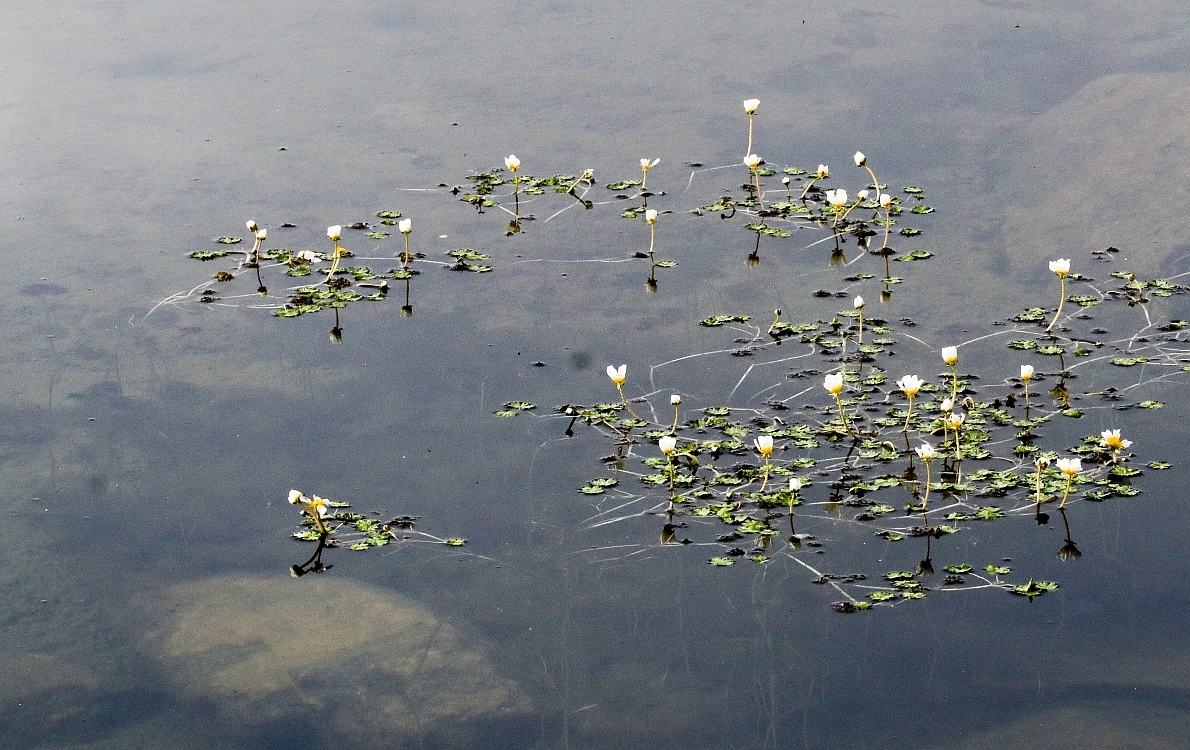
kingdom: Plantae
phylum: Tracheophyta
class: Magnoliopsida
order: Ranunculales
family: Ranunculaceae
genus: Ranunculus
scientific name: Ranunculus schmalhausenii
